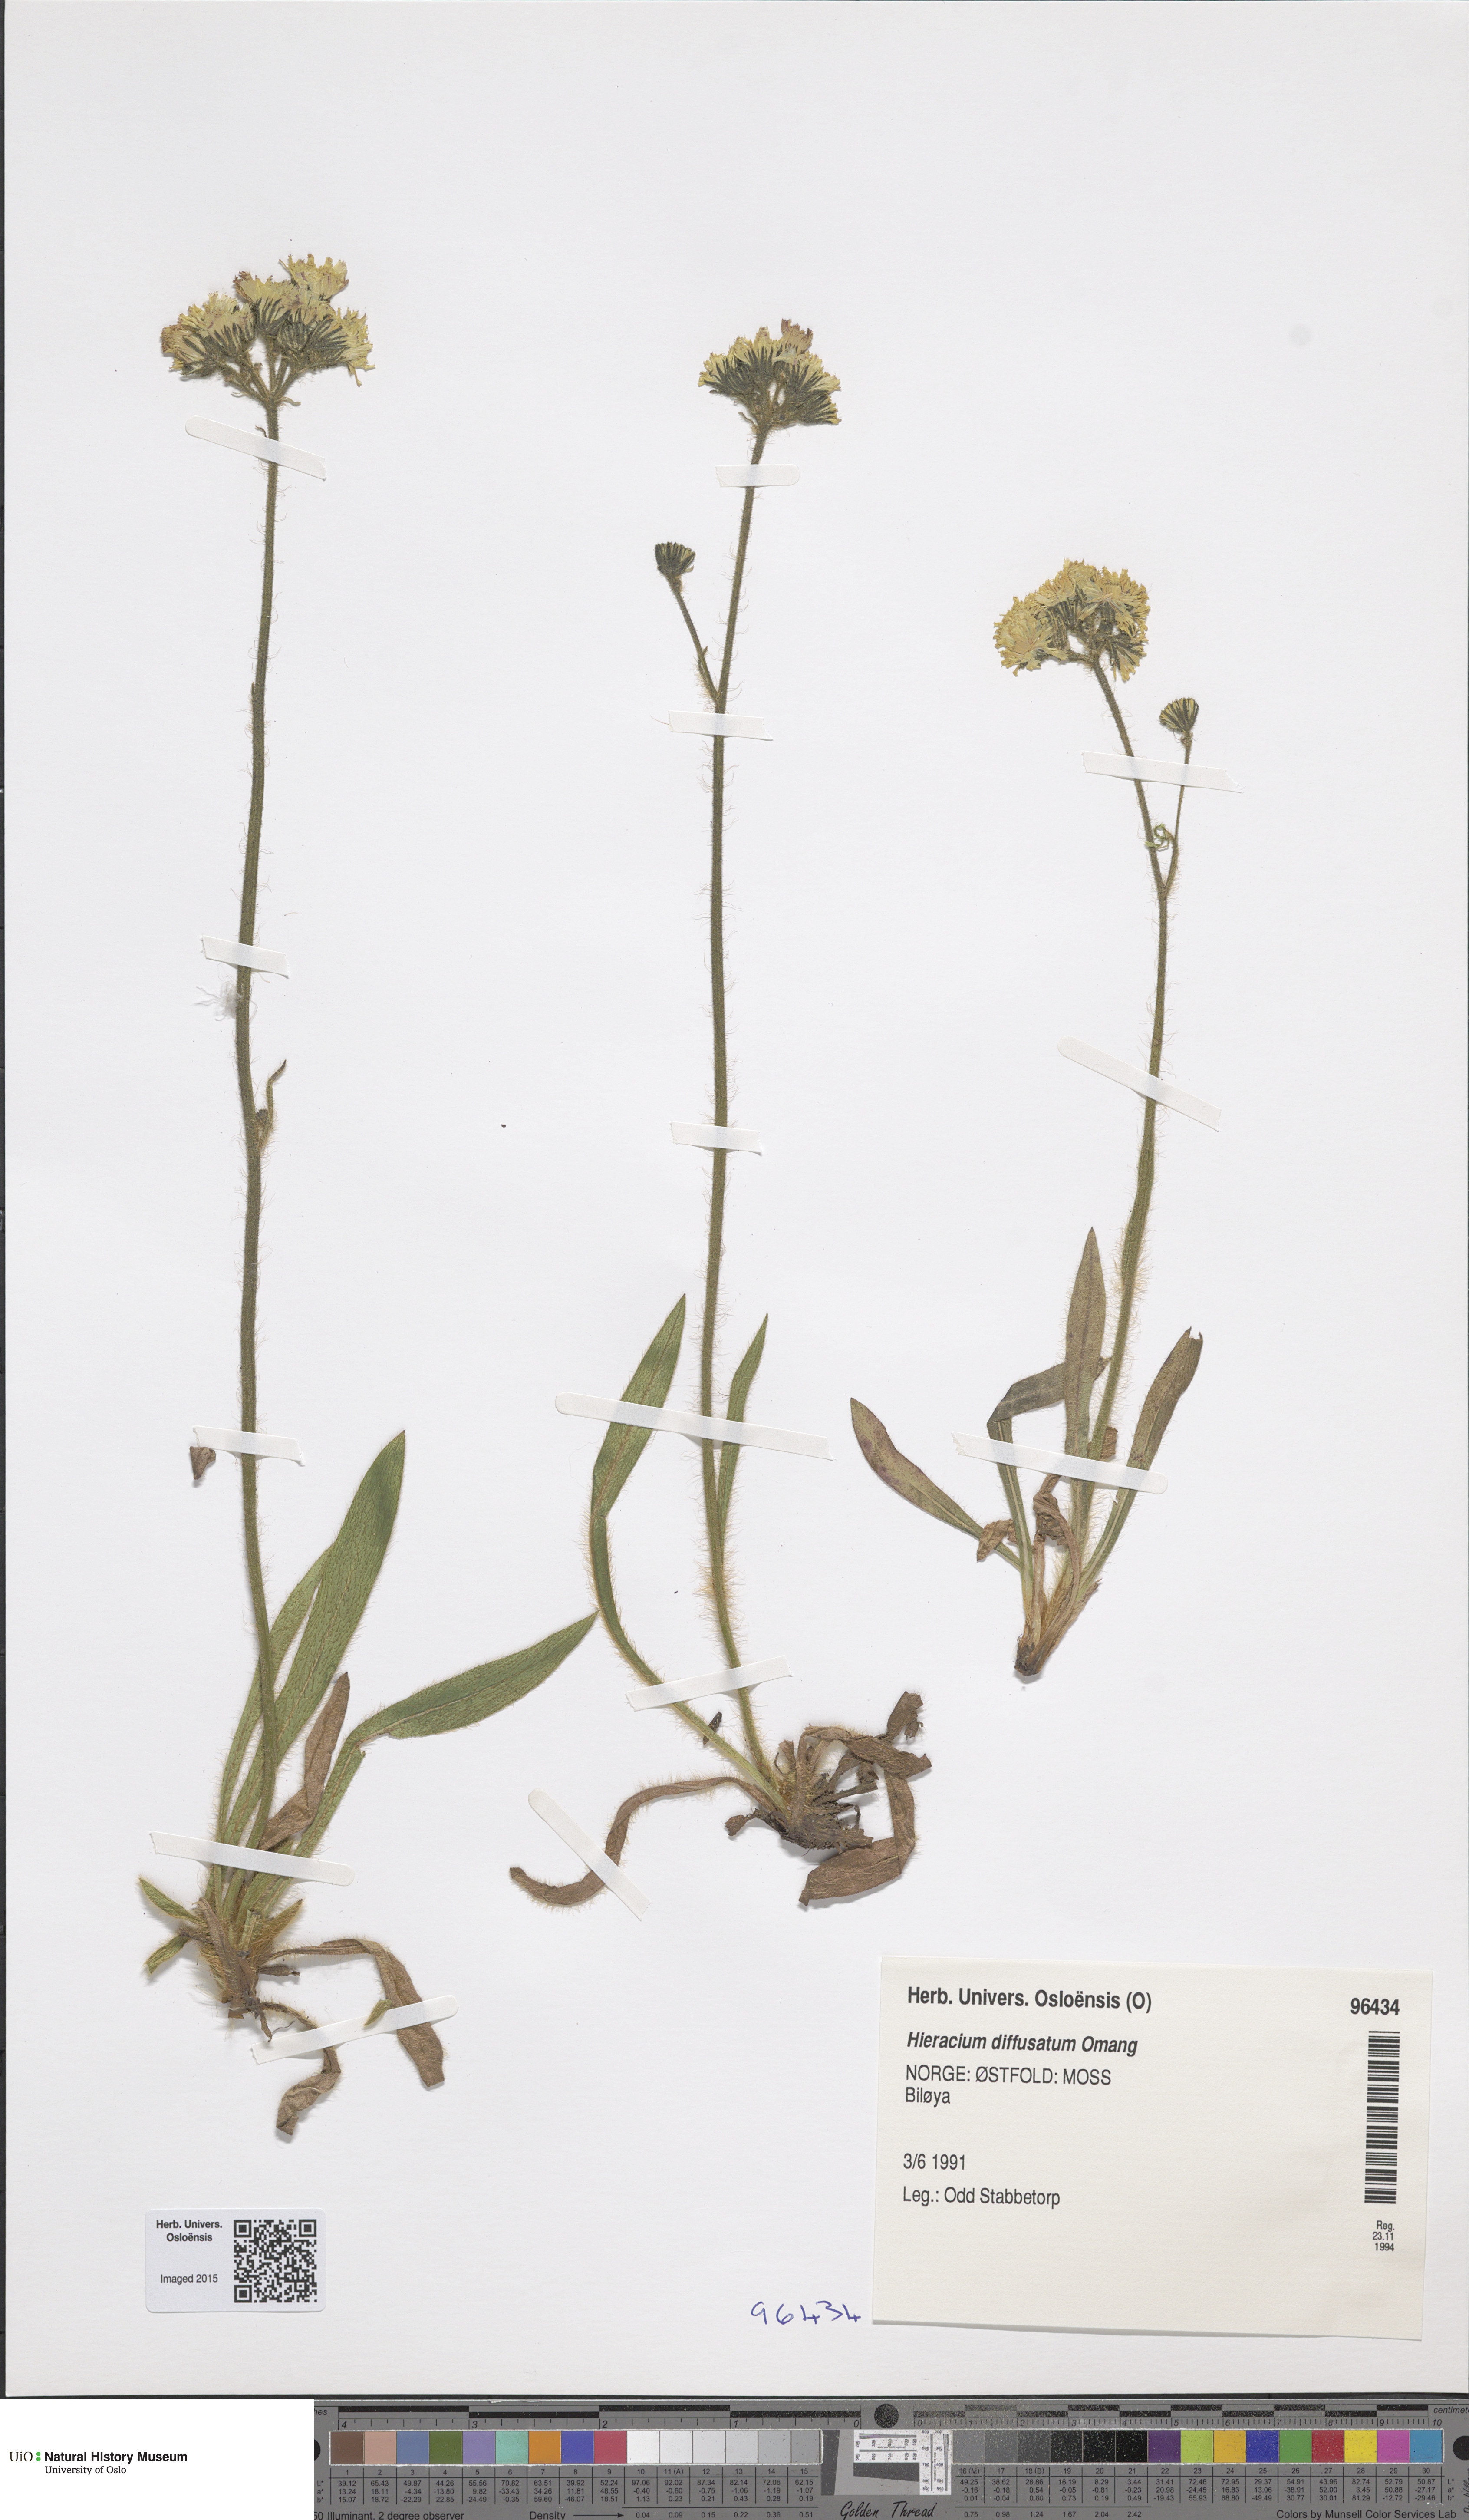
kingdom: Plantae
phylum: Tracheophyta
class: Magnoliopsida
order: Asterales
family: Asteraceae
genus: Pilosella
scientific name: Pilosella dubia
